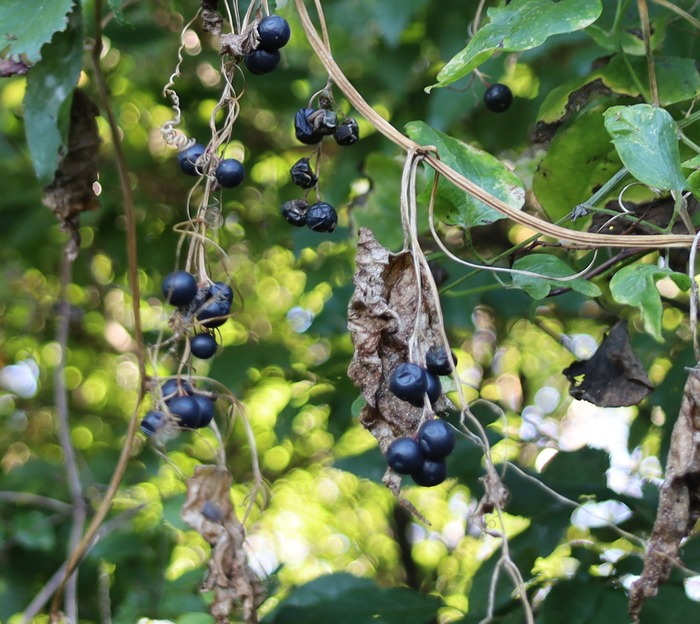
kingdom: Plantae
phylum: Tracheophyta
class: Magnoliopsida
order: Cucurbitales
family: Cucurbitaceae
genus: Bryonia
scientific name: Bryonia alba
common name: Enbo galdebær
